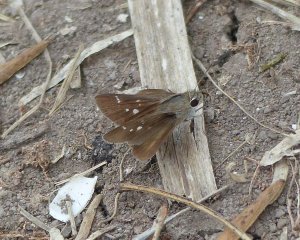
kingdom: Animalia
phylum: Arthropoda
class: Insecta
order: Lepidoptera
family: Hesperiidae
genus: Lerodea
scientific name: Lerodea eufala
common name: Eufala Skipper
